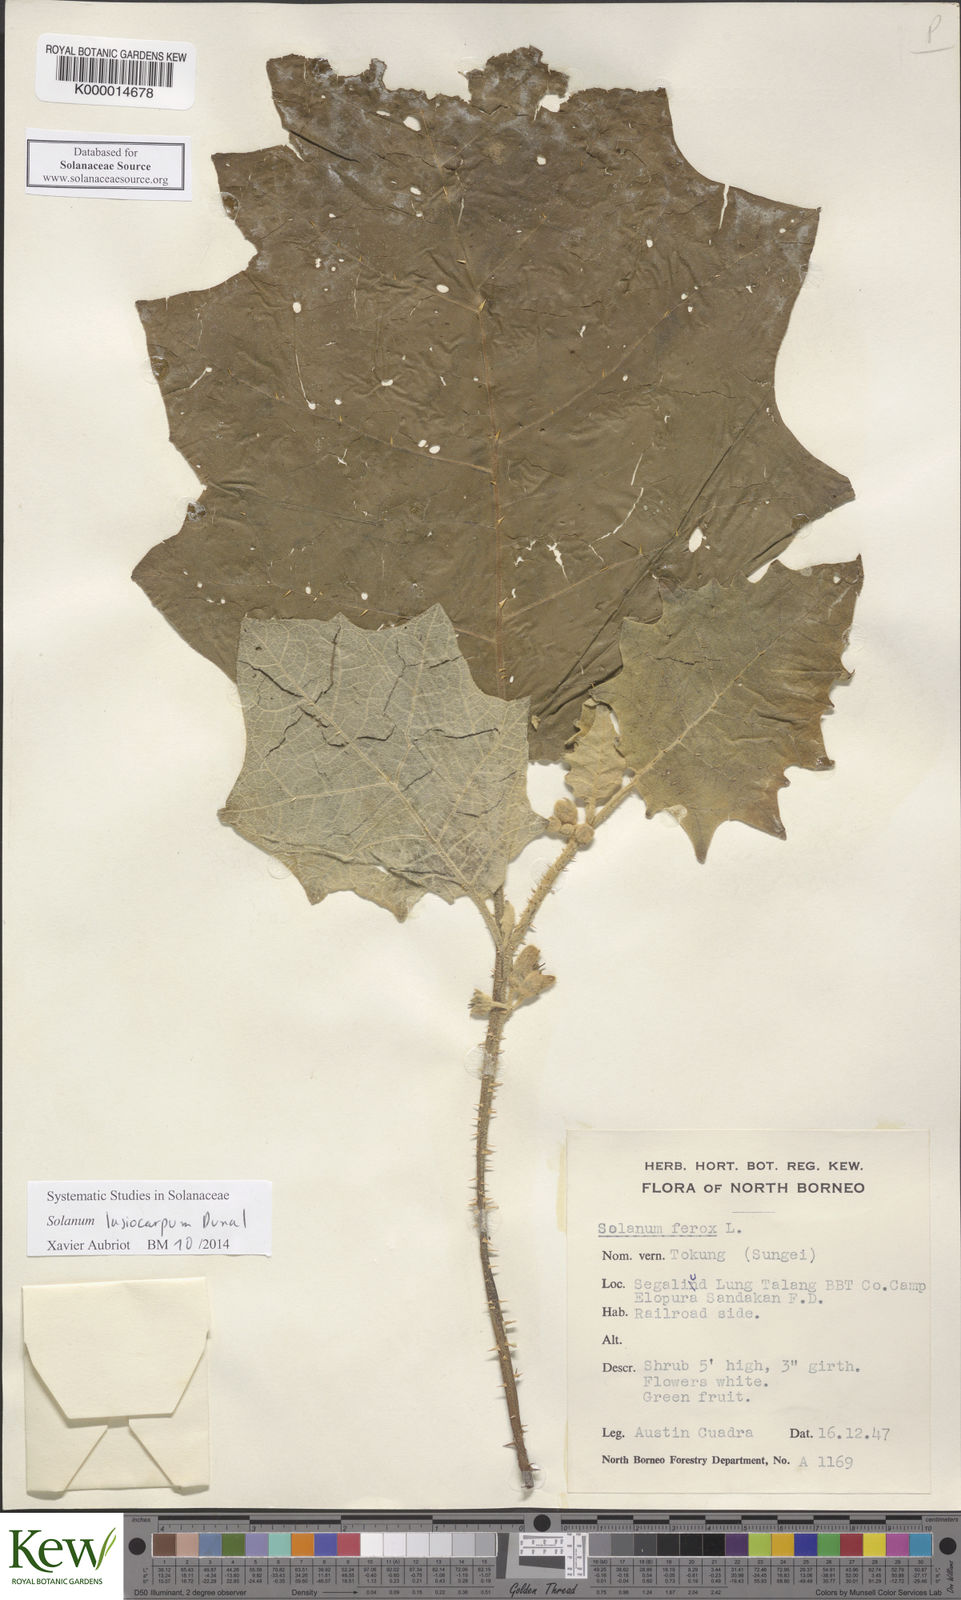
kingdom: Plantae
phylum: Tracheophyta
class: Magnoliopsida
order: Solanales
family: Solanaceae
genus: Solanum
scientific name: Solanum lasiocarpum
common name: Indian nightshade
